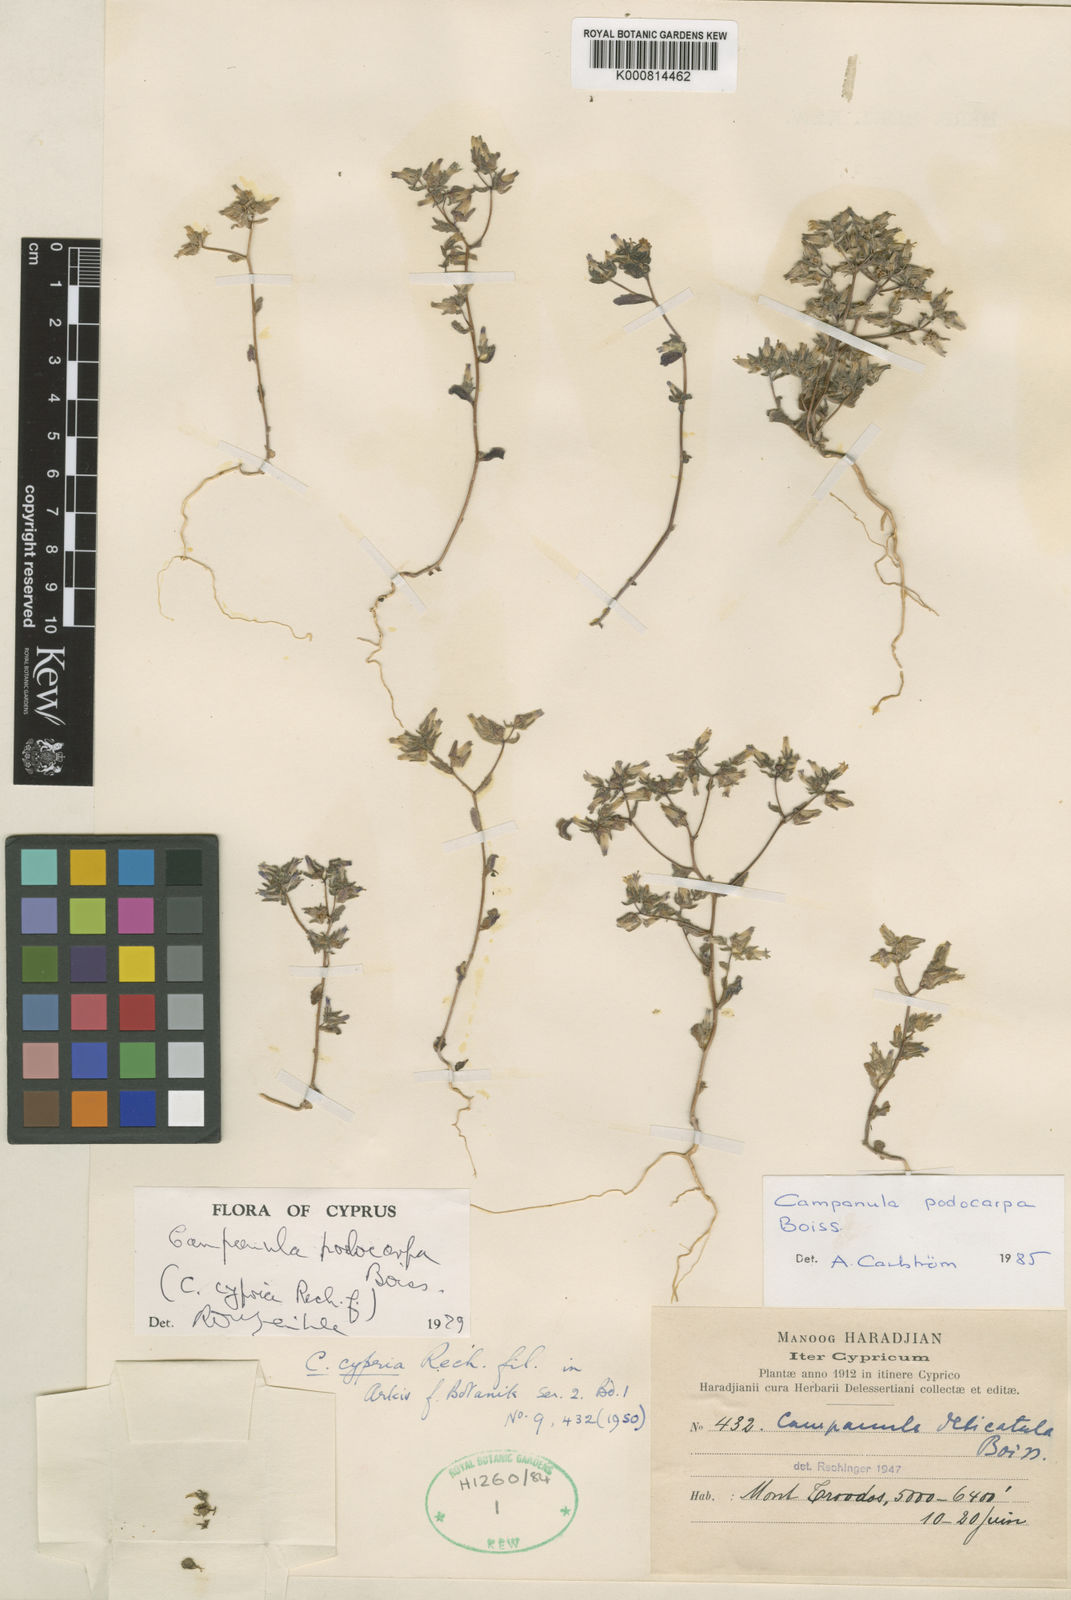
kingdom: Plantae
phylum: Tracheophyta
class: Magnoliopsida
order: Asterales
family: Campanulaceae
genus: Campanula
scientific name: Campanula podocarpa
